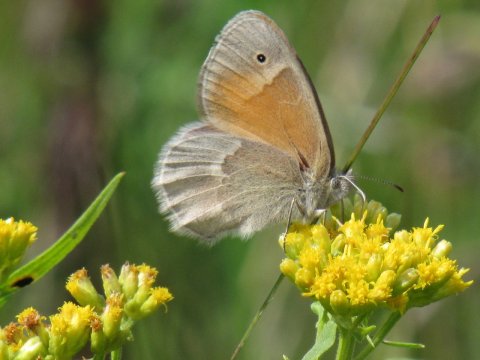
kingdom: Animalia
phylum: Arthropoda
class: Insecta
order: Lepidoptera
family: Nymphalidae
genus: Coenonympha
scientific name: Coenonympha tullia
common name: Large Heath
